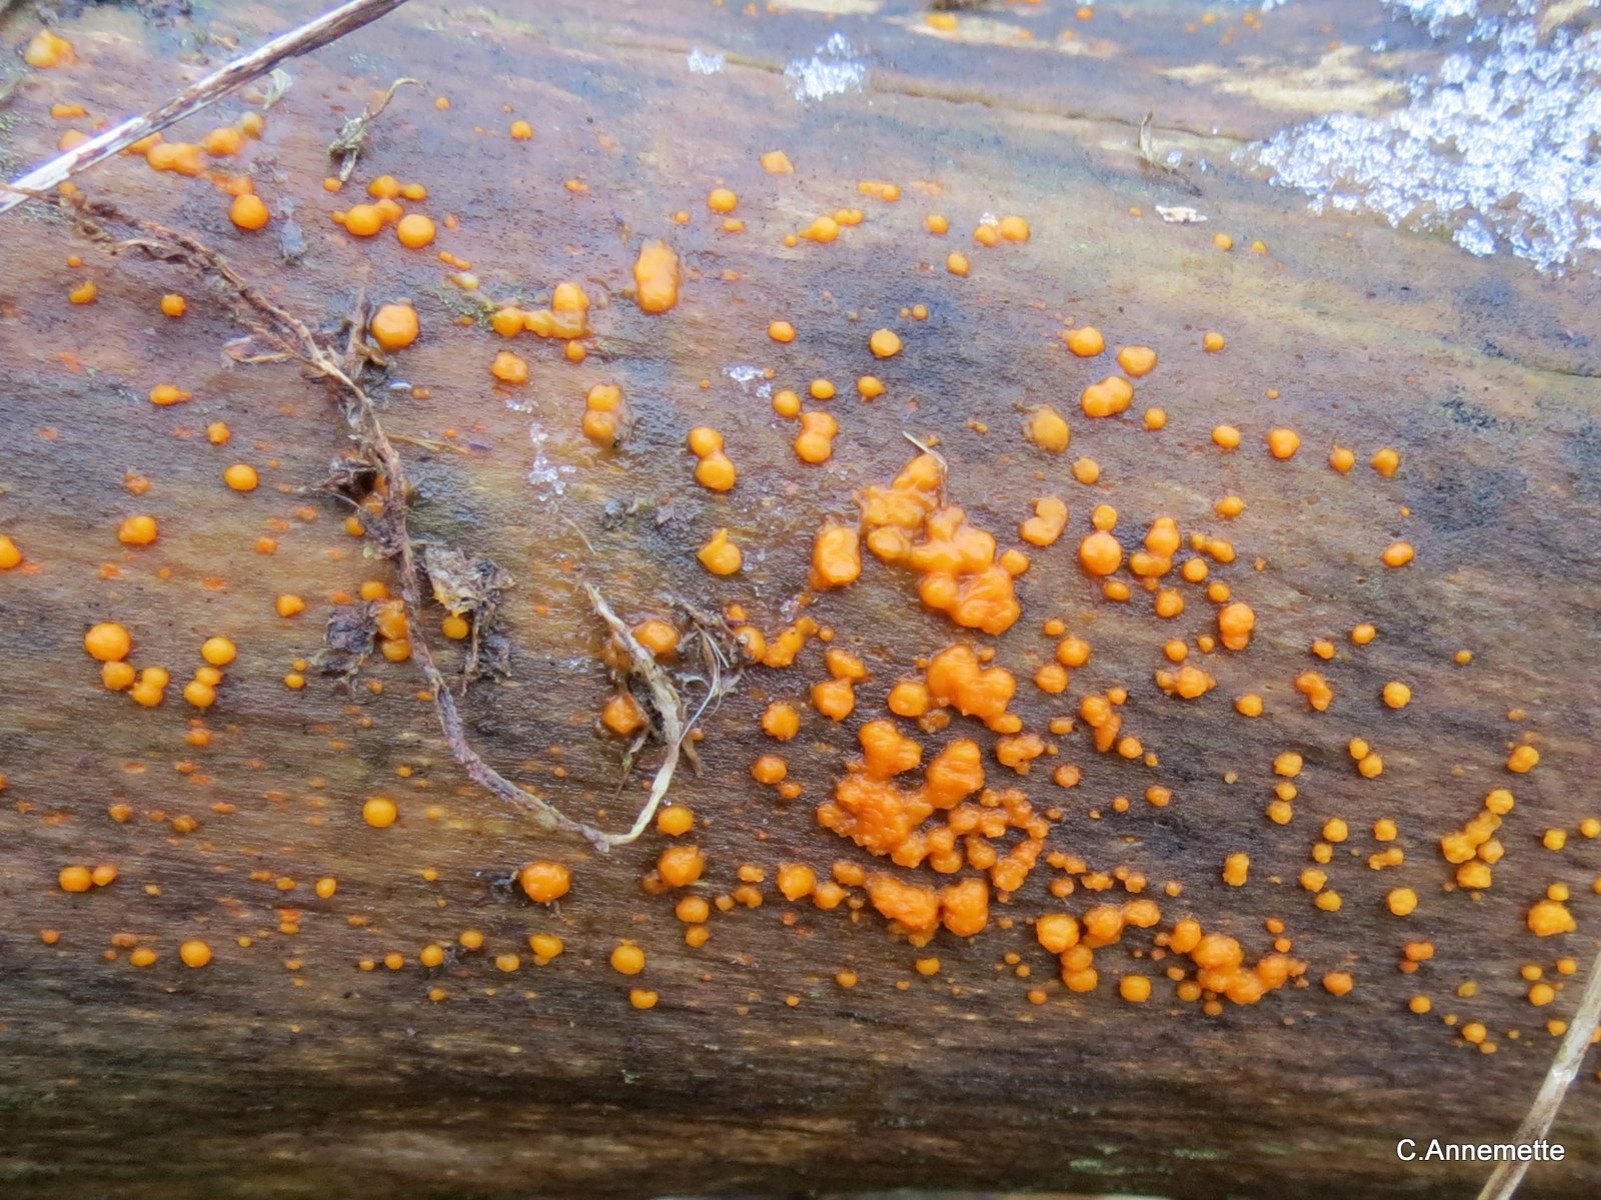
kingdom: Fungi
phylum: Basidiomycota
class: Dacrymycetes
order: Dacrymycetales
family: Dacrymycetaceae
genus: Dacrymyces
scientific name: Dacrymyces stillatus
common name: almindelig tåresvamp
